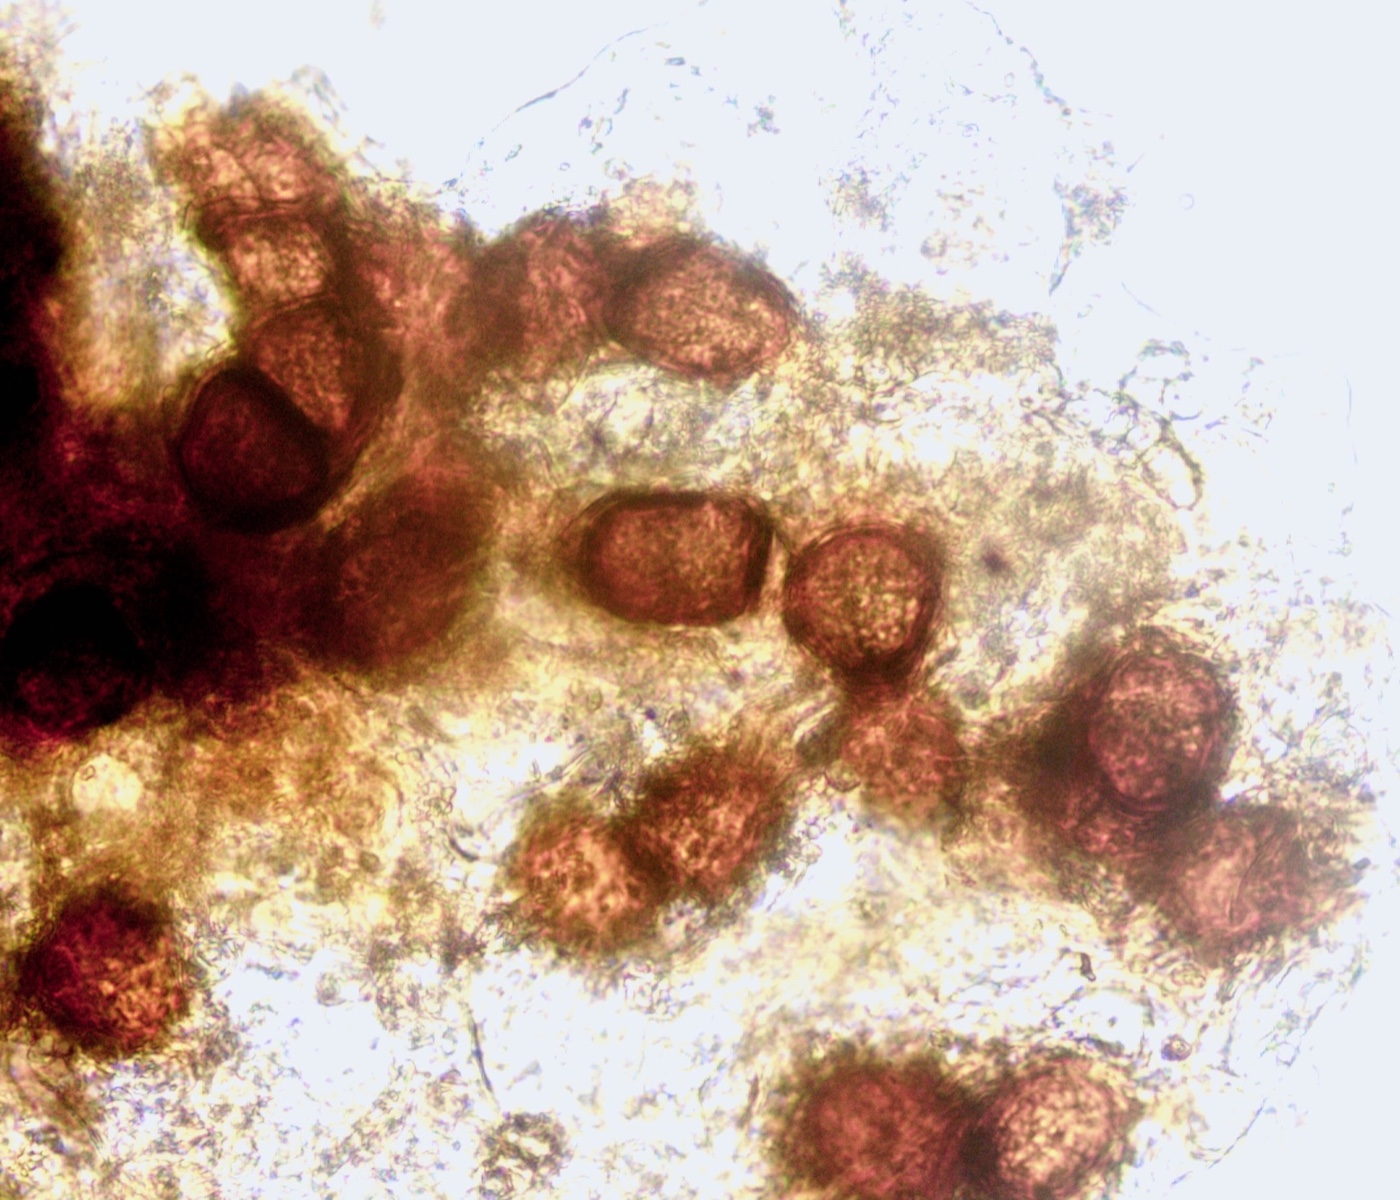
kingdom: Fungi
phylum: Basidiomycota
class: Wallemiomycetes
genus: Bartheletia
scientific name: Bartheletia paradoxa
